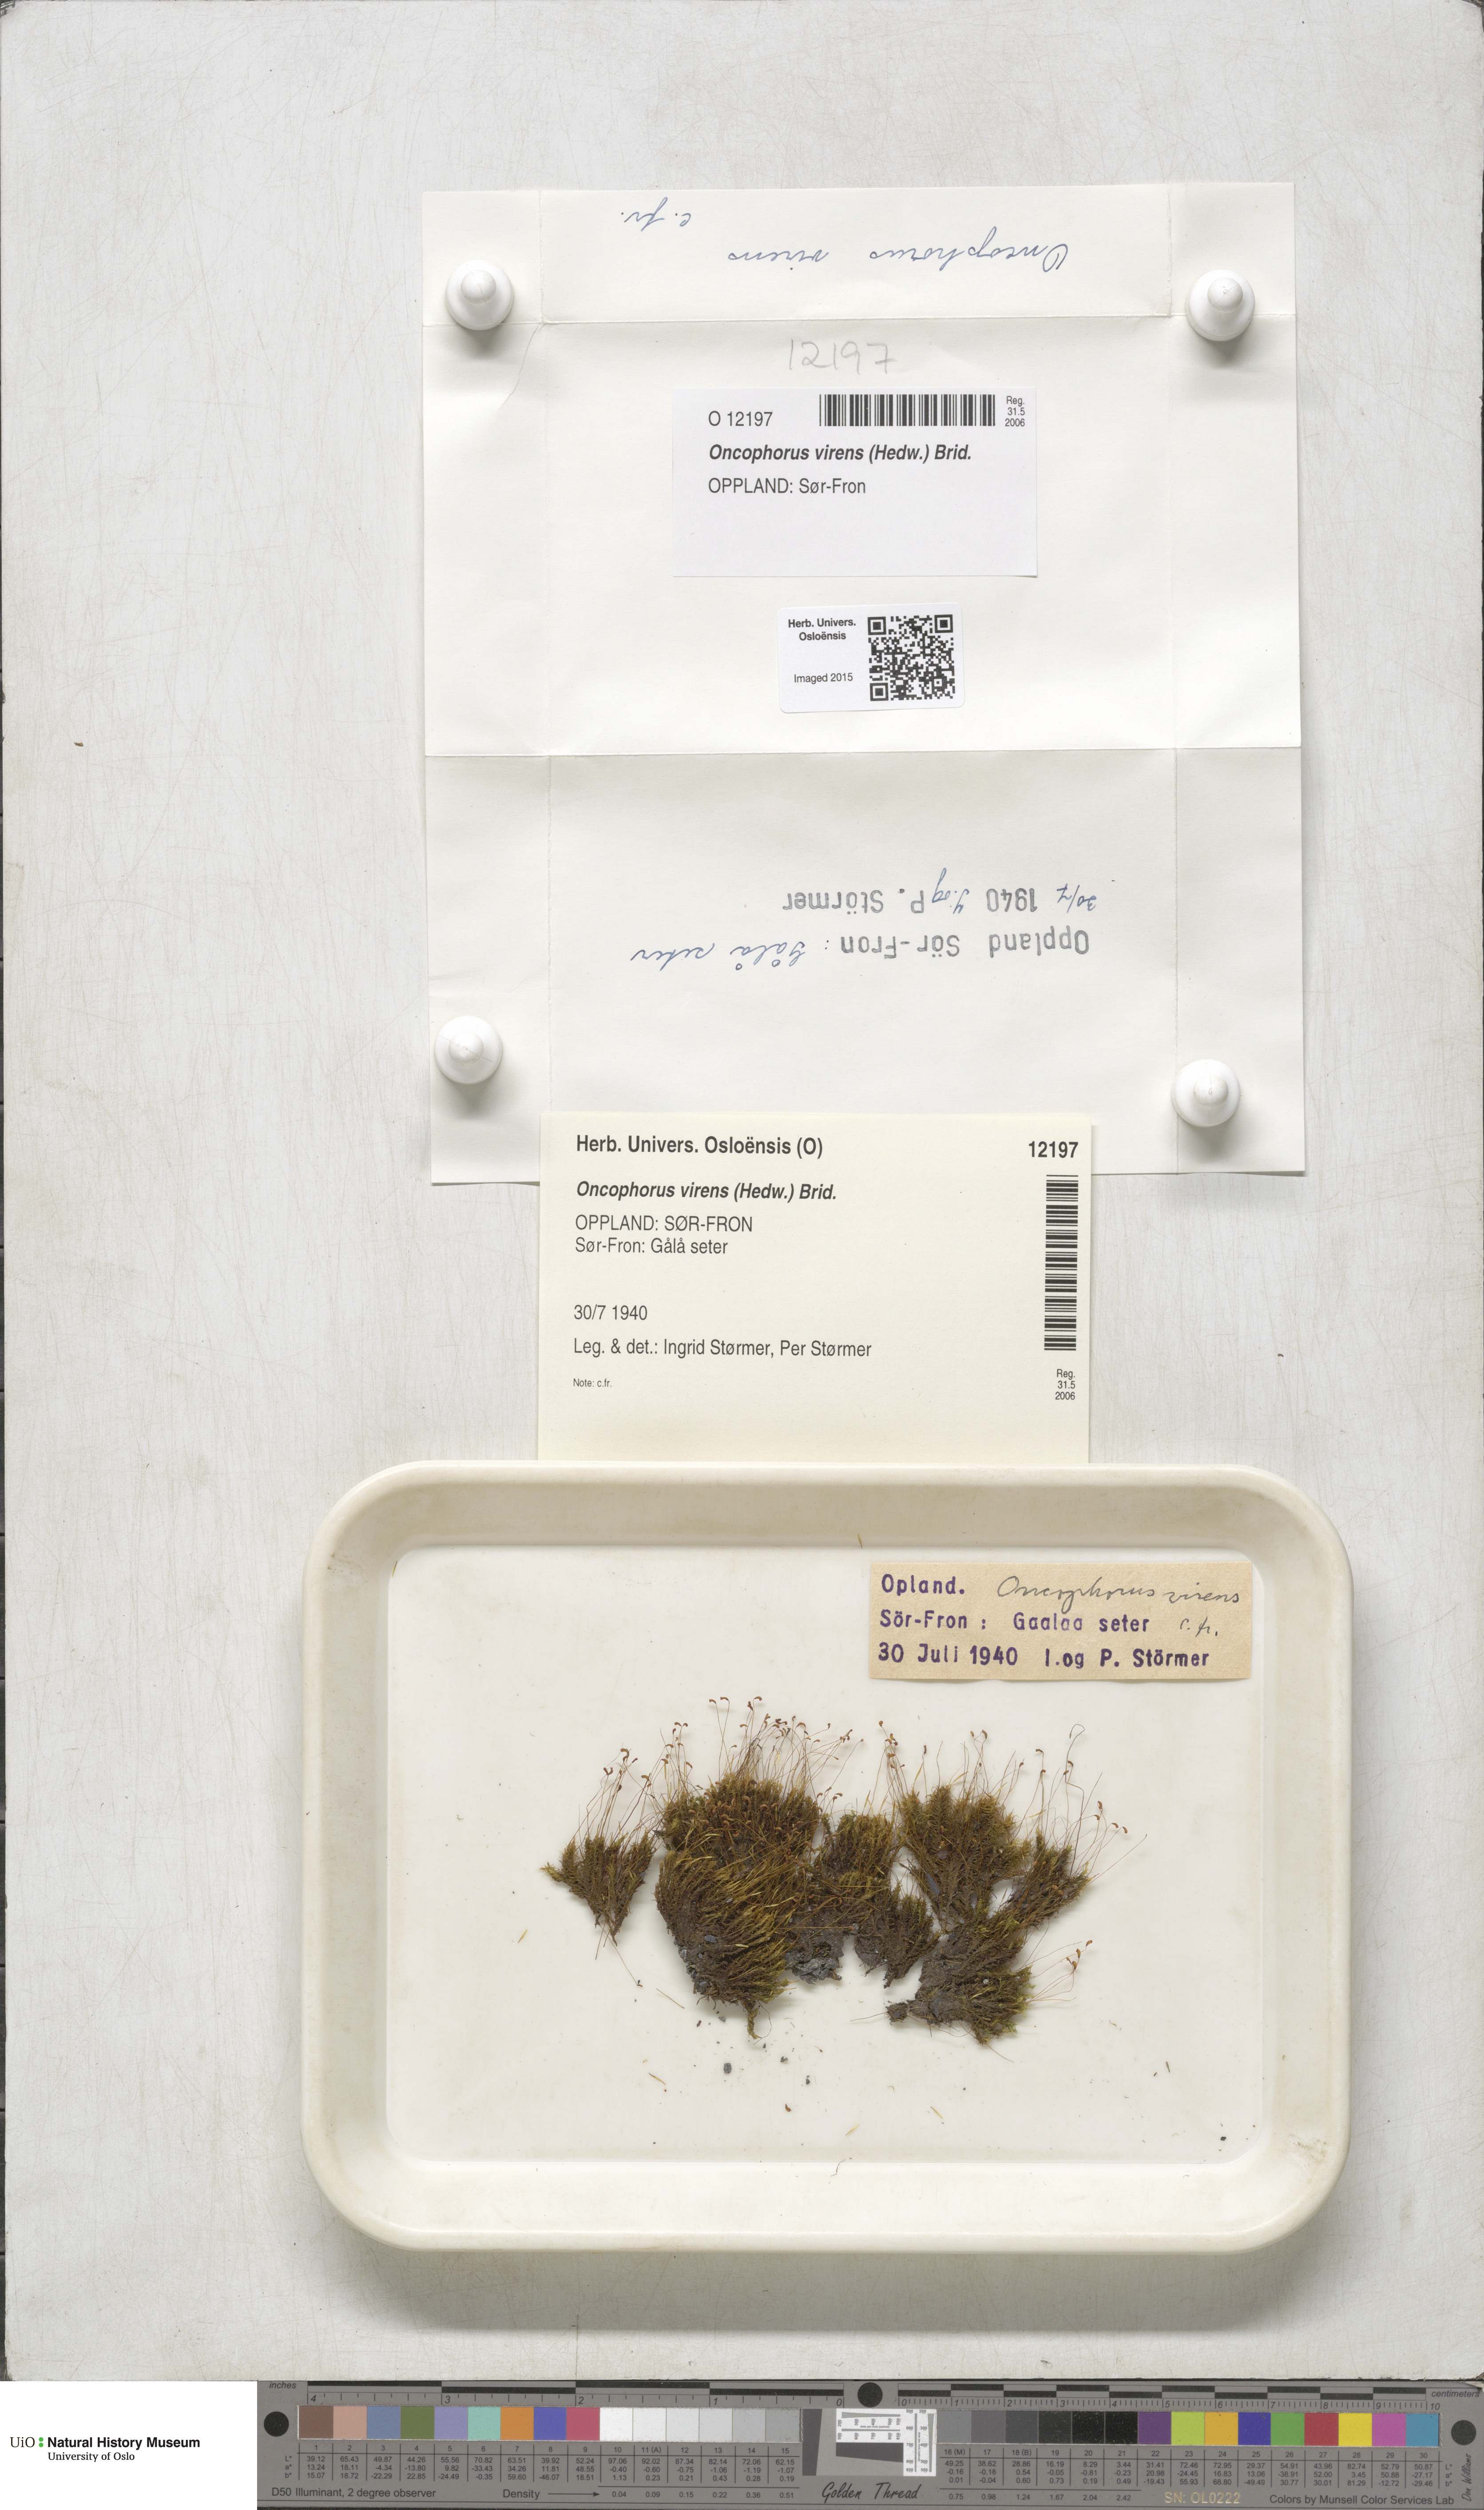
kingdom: Plantae
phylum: Bryophyta
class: Bryopsida
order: Dicranales
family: Rhabdoweisiaceae
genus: Oncophorus
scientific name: Oncophorus virens
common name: Green spur moss
